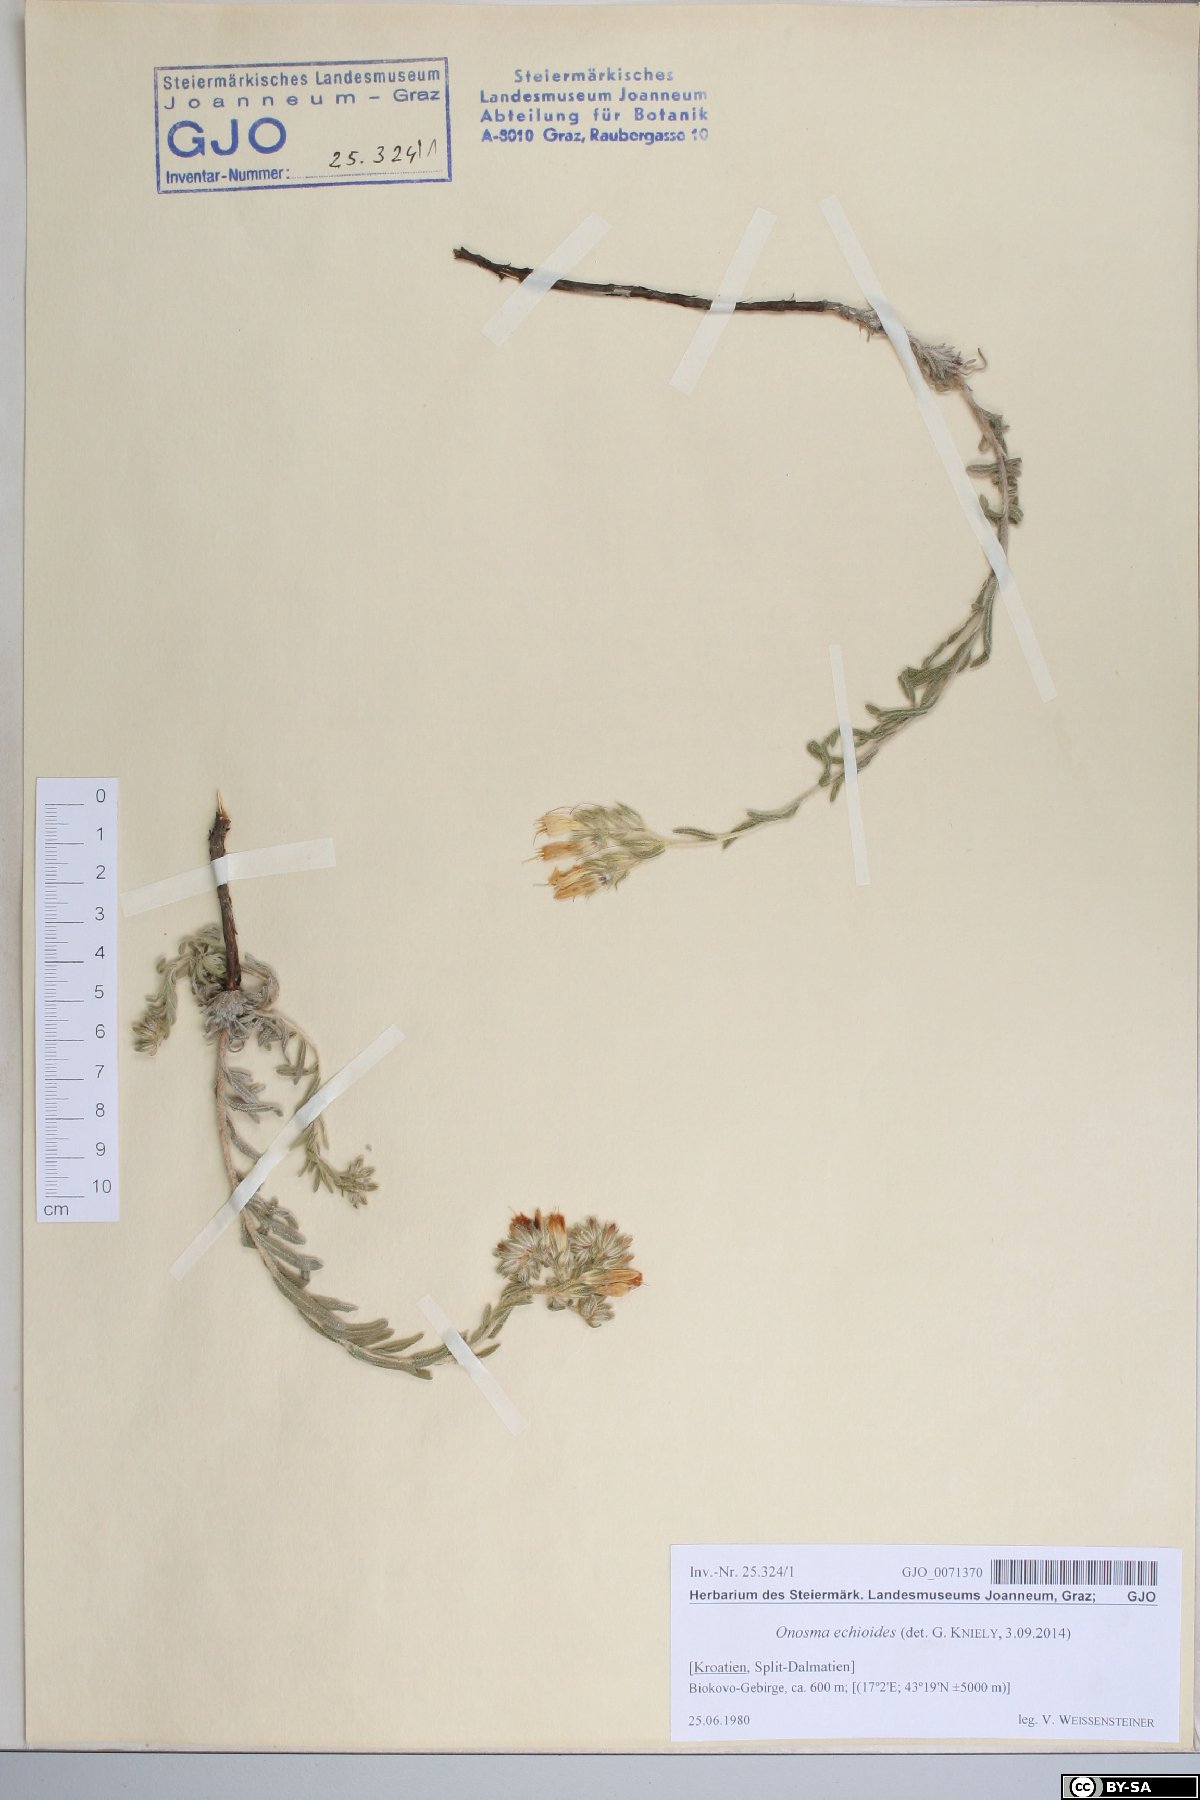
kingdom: Plantae
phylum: Tracheophyta
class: Magnoliopsida
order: Boraginales
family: Boraginaceae
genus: Onosma
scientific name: Onosma echioides
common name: Goldendrop
